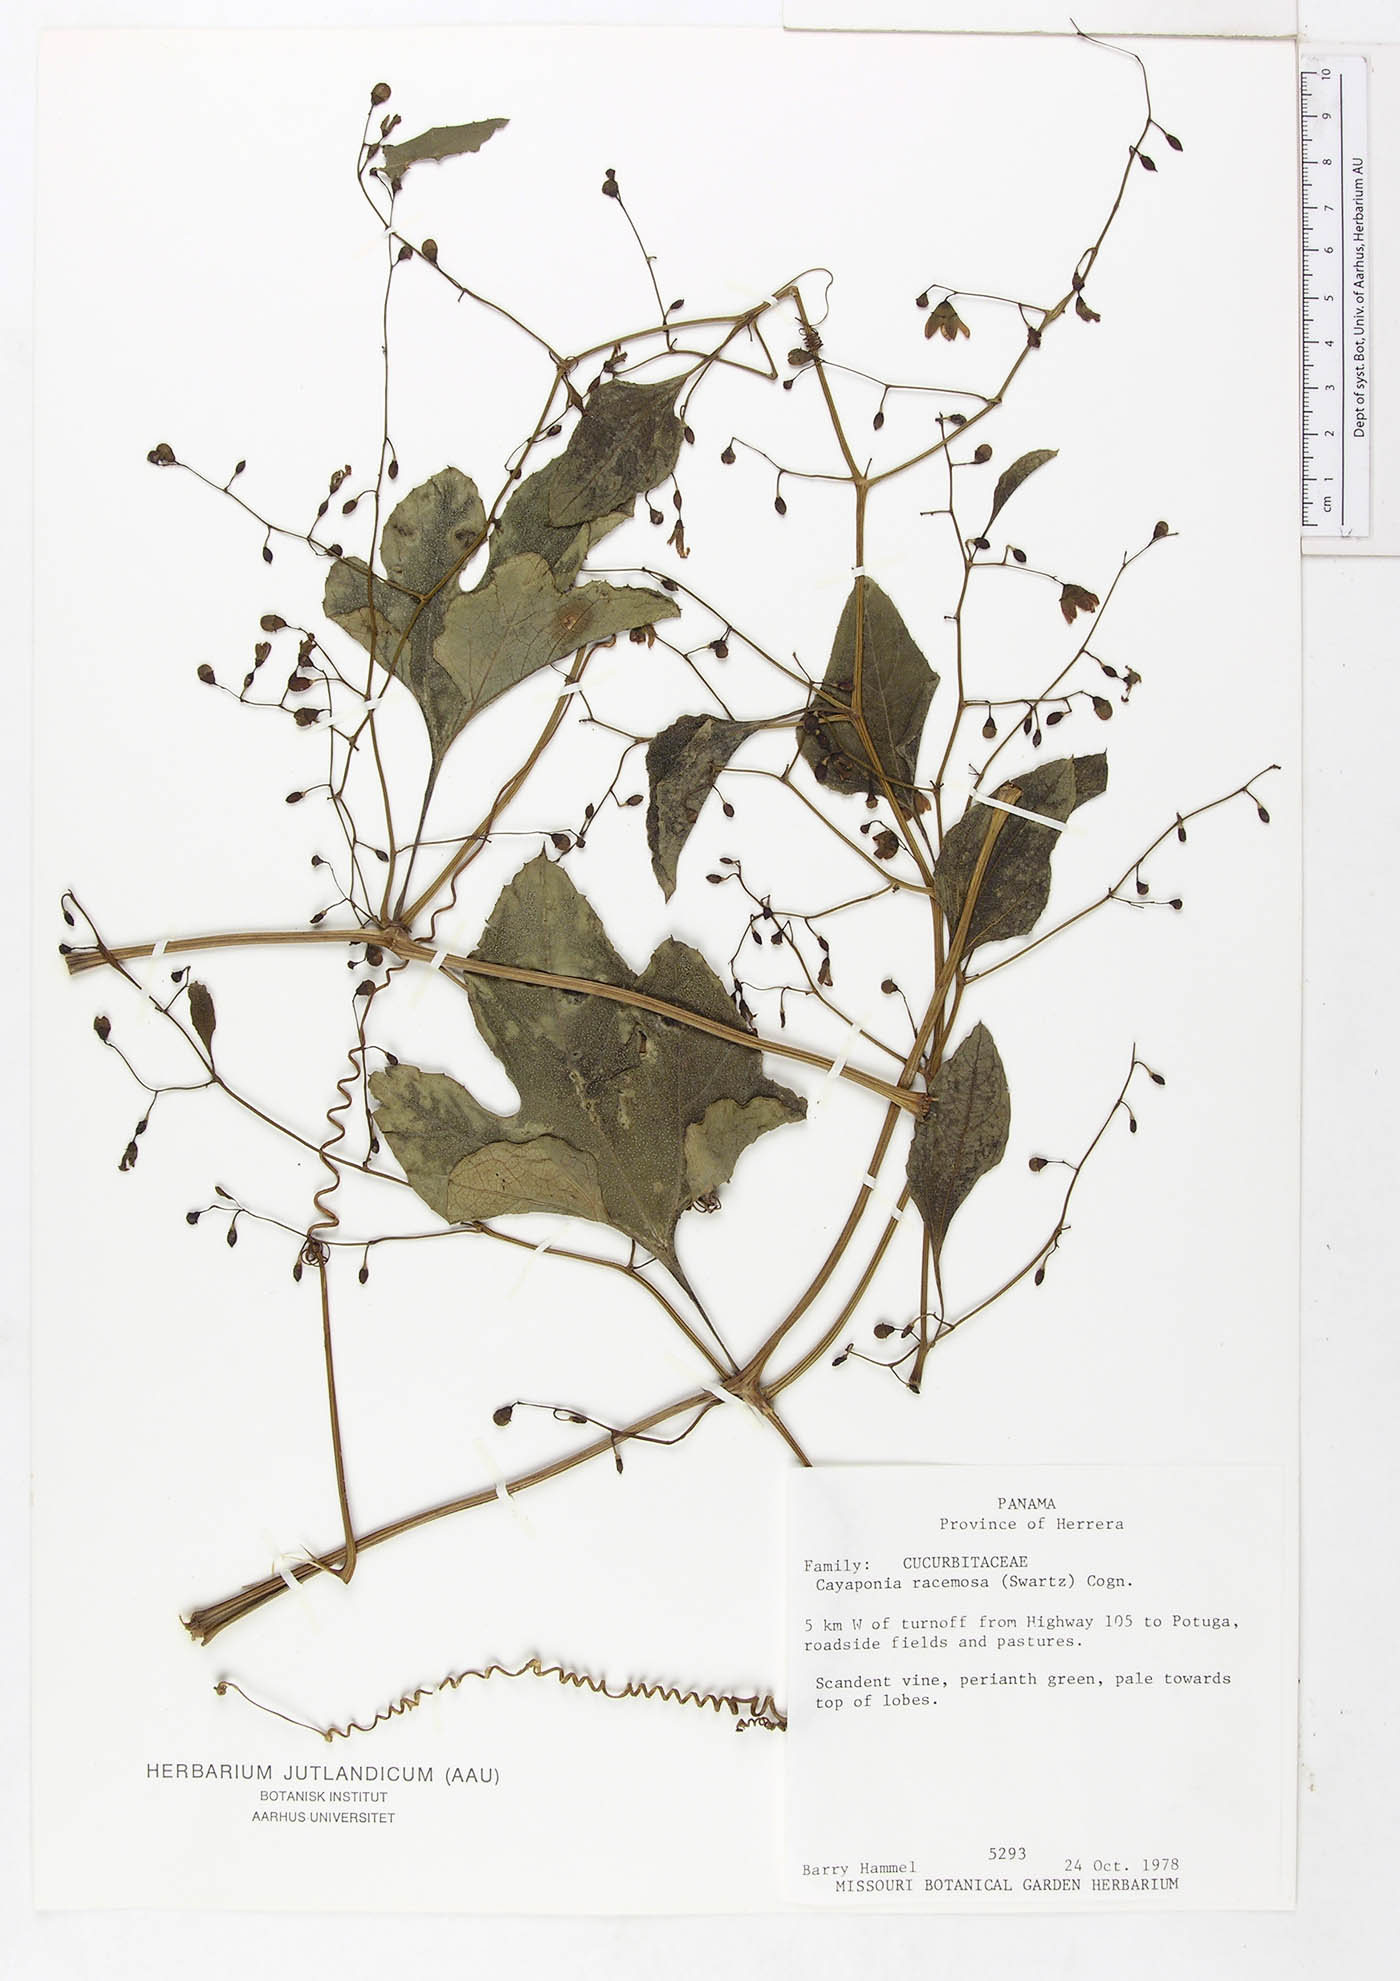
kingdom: Plantae
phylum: Tracheophyta
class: Magnoliopsida
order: Cucurbitales
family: Cucurbitaceae
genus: Cayaponia
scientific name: Cayaponia racemosa
